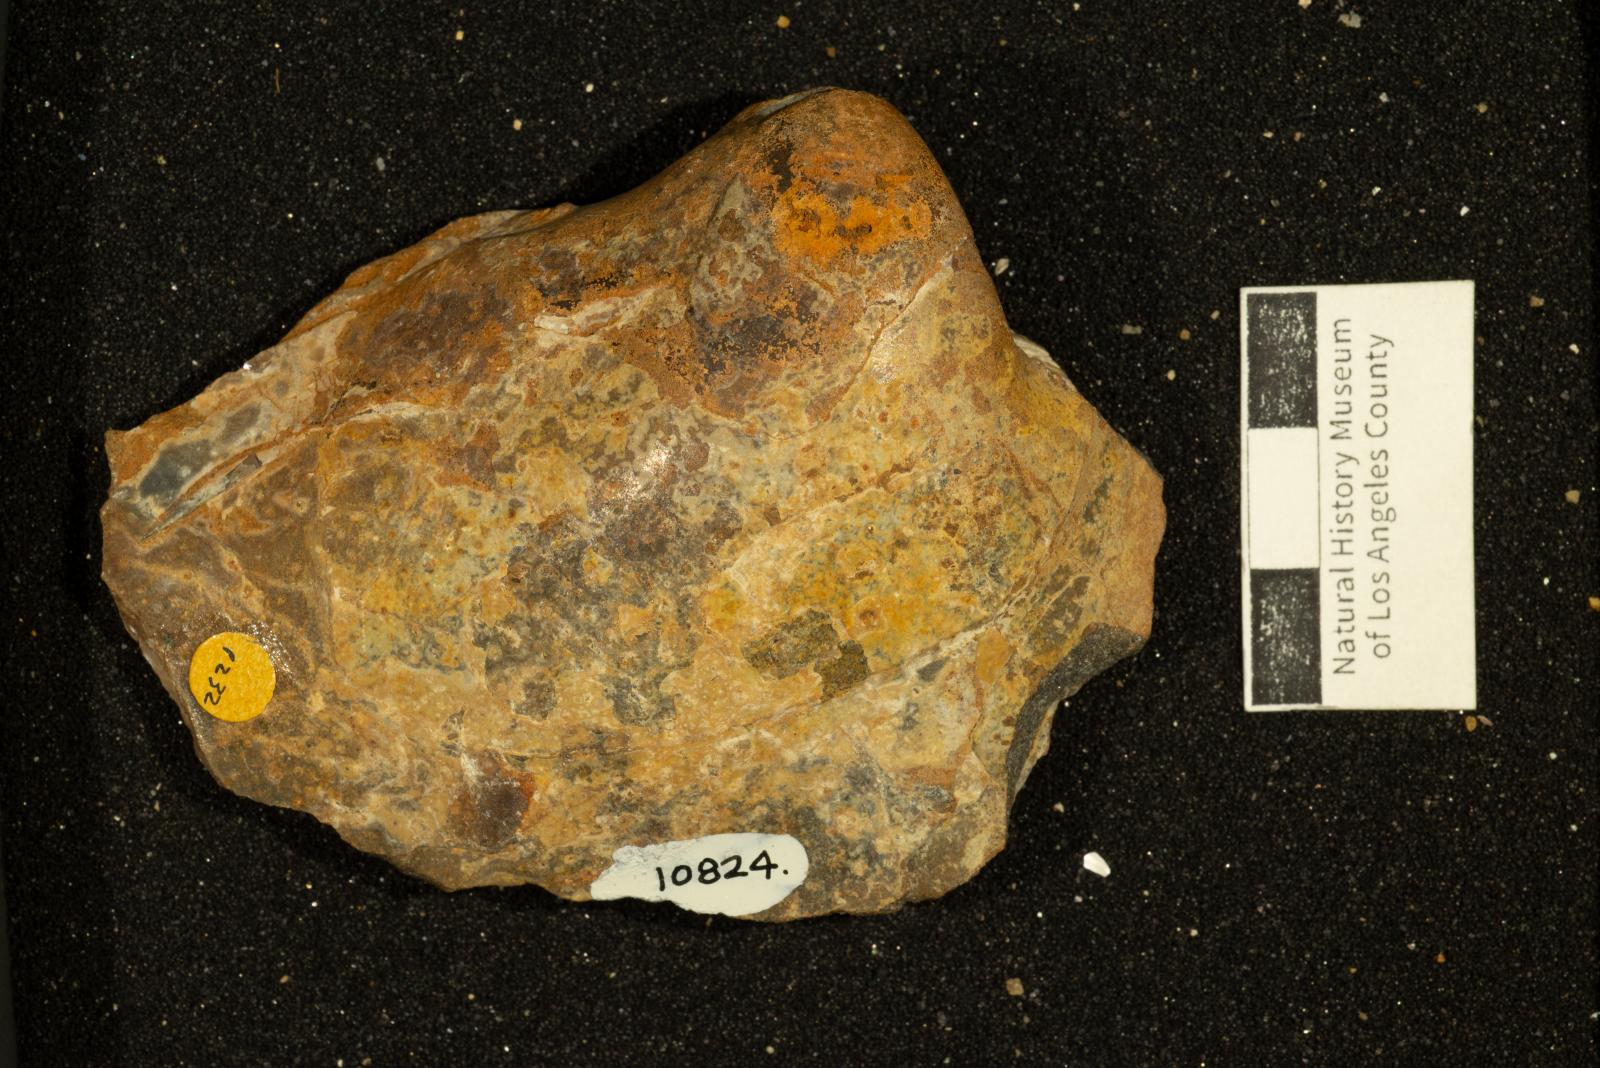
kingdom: Animalia
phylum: Mollusca
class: Bivalvia
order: Trigoniida
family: Steinmanellidae
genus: Yaadia
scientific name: Yaadia
